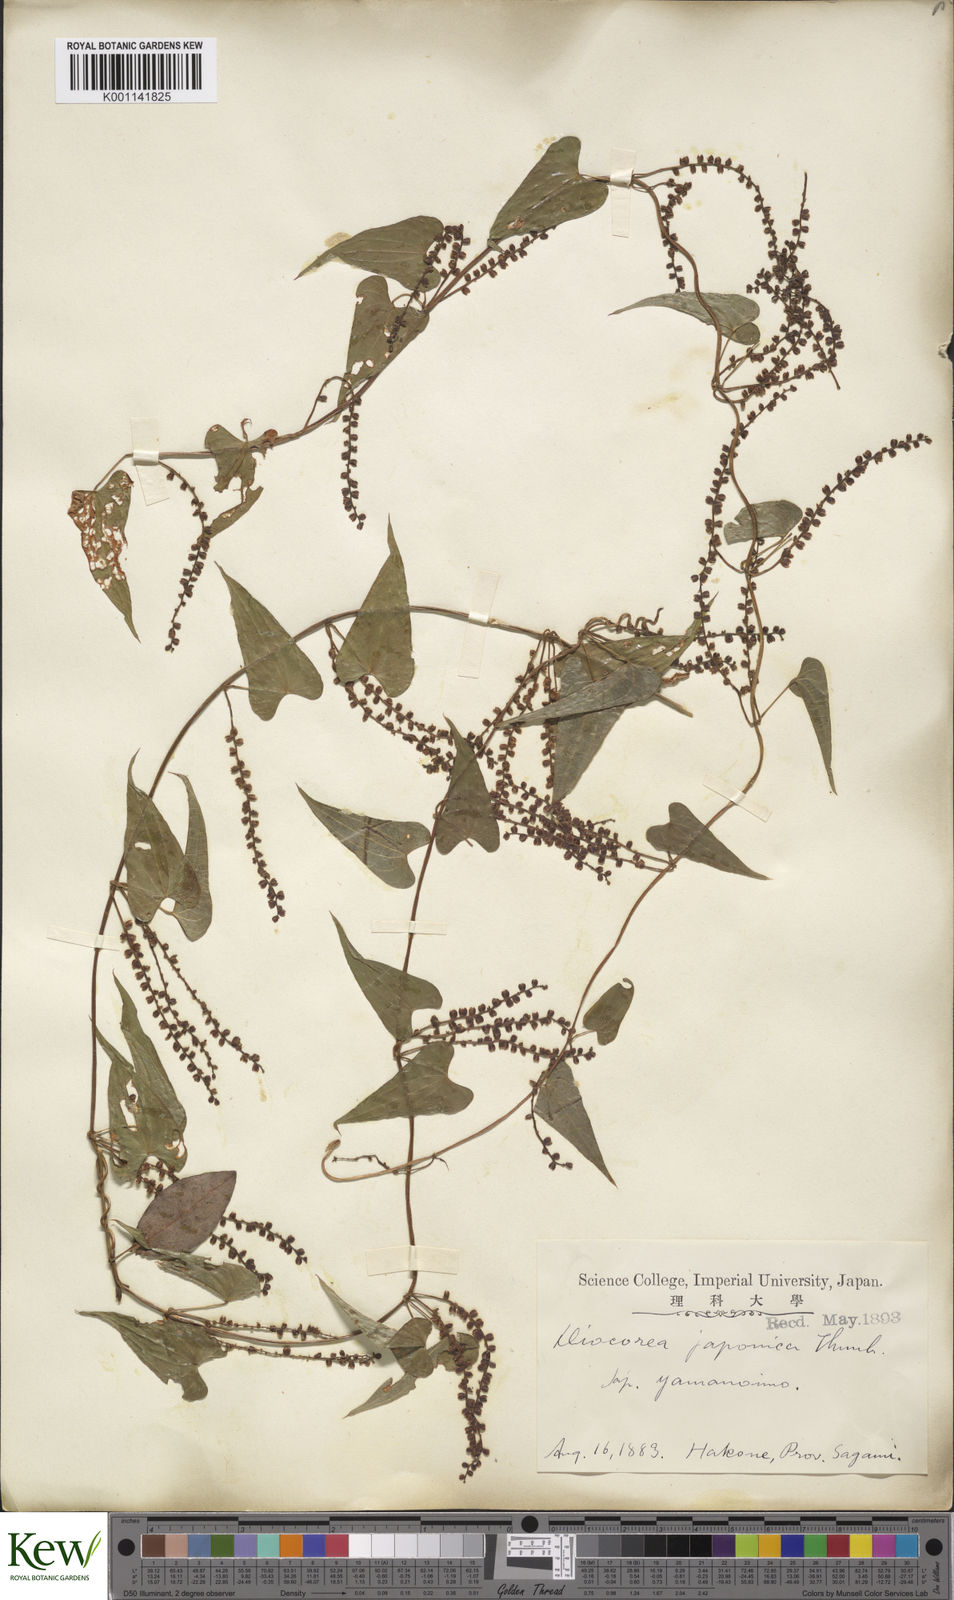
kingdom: Plantae
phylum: Tracheophyta
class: Liliopsida
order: Dioscoreales
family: Dioscoreaceae
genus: Dioscorea
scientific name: Dioscorea japonica
